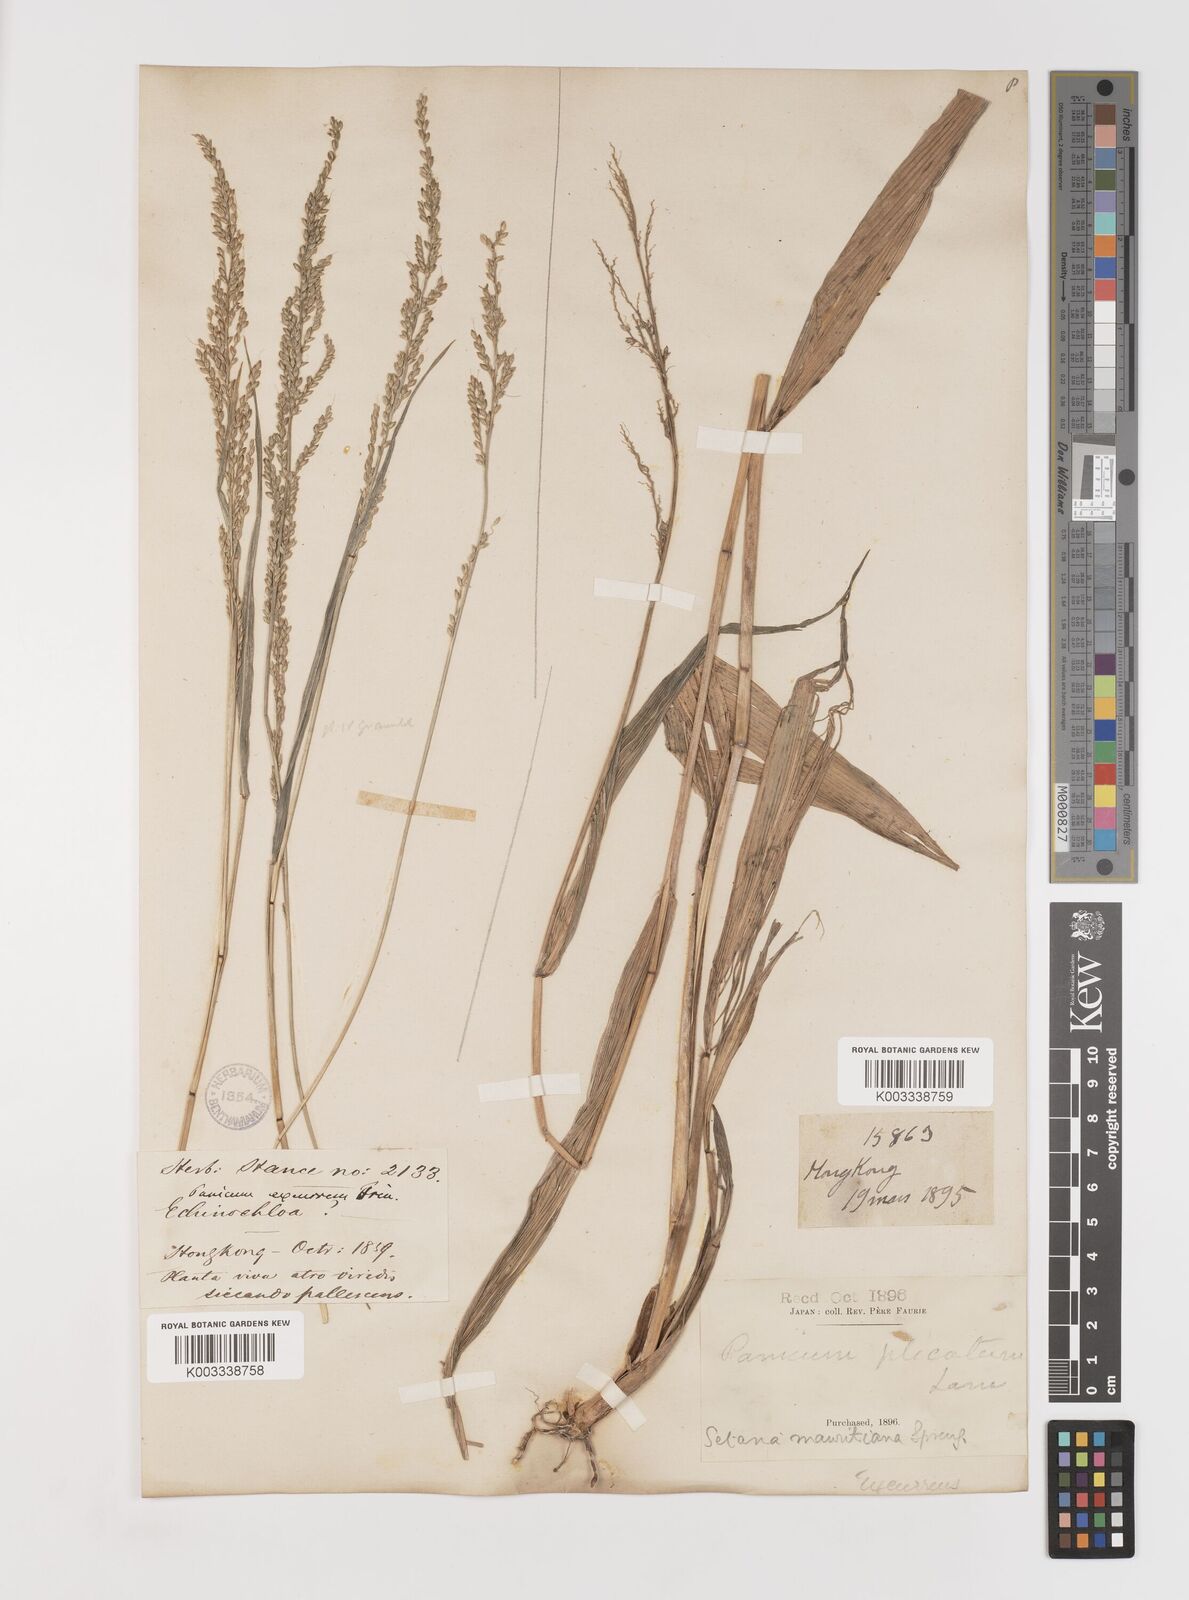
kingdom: Plantae
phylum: Tracheophyta
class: Liliopsida
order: Poales
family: Poaceae
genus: Setaria
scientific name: Setaria plicata
